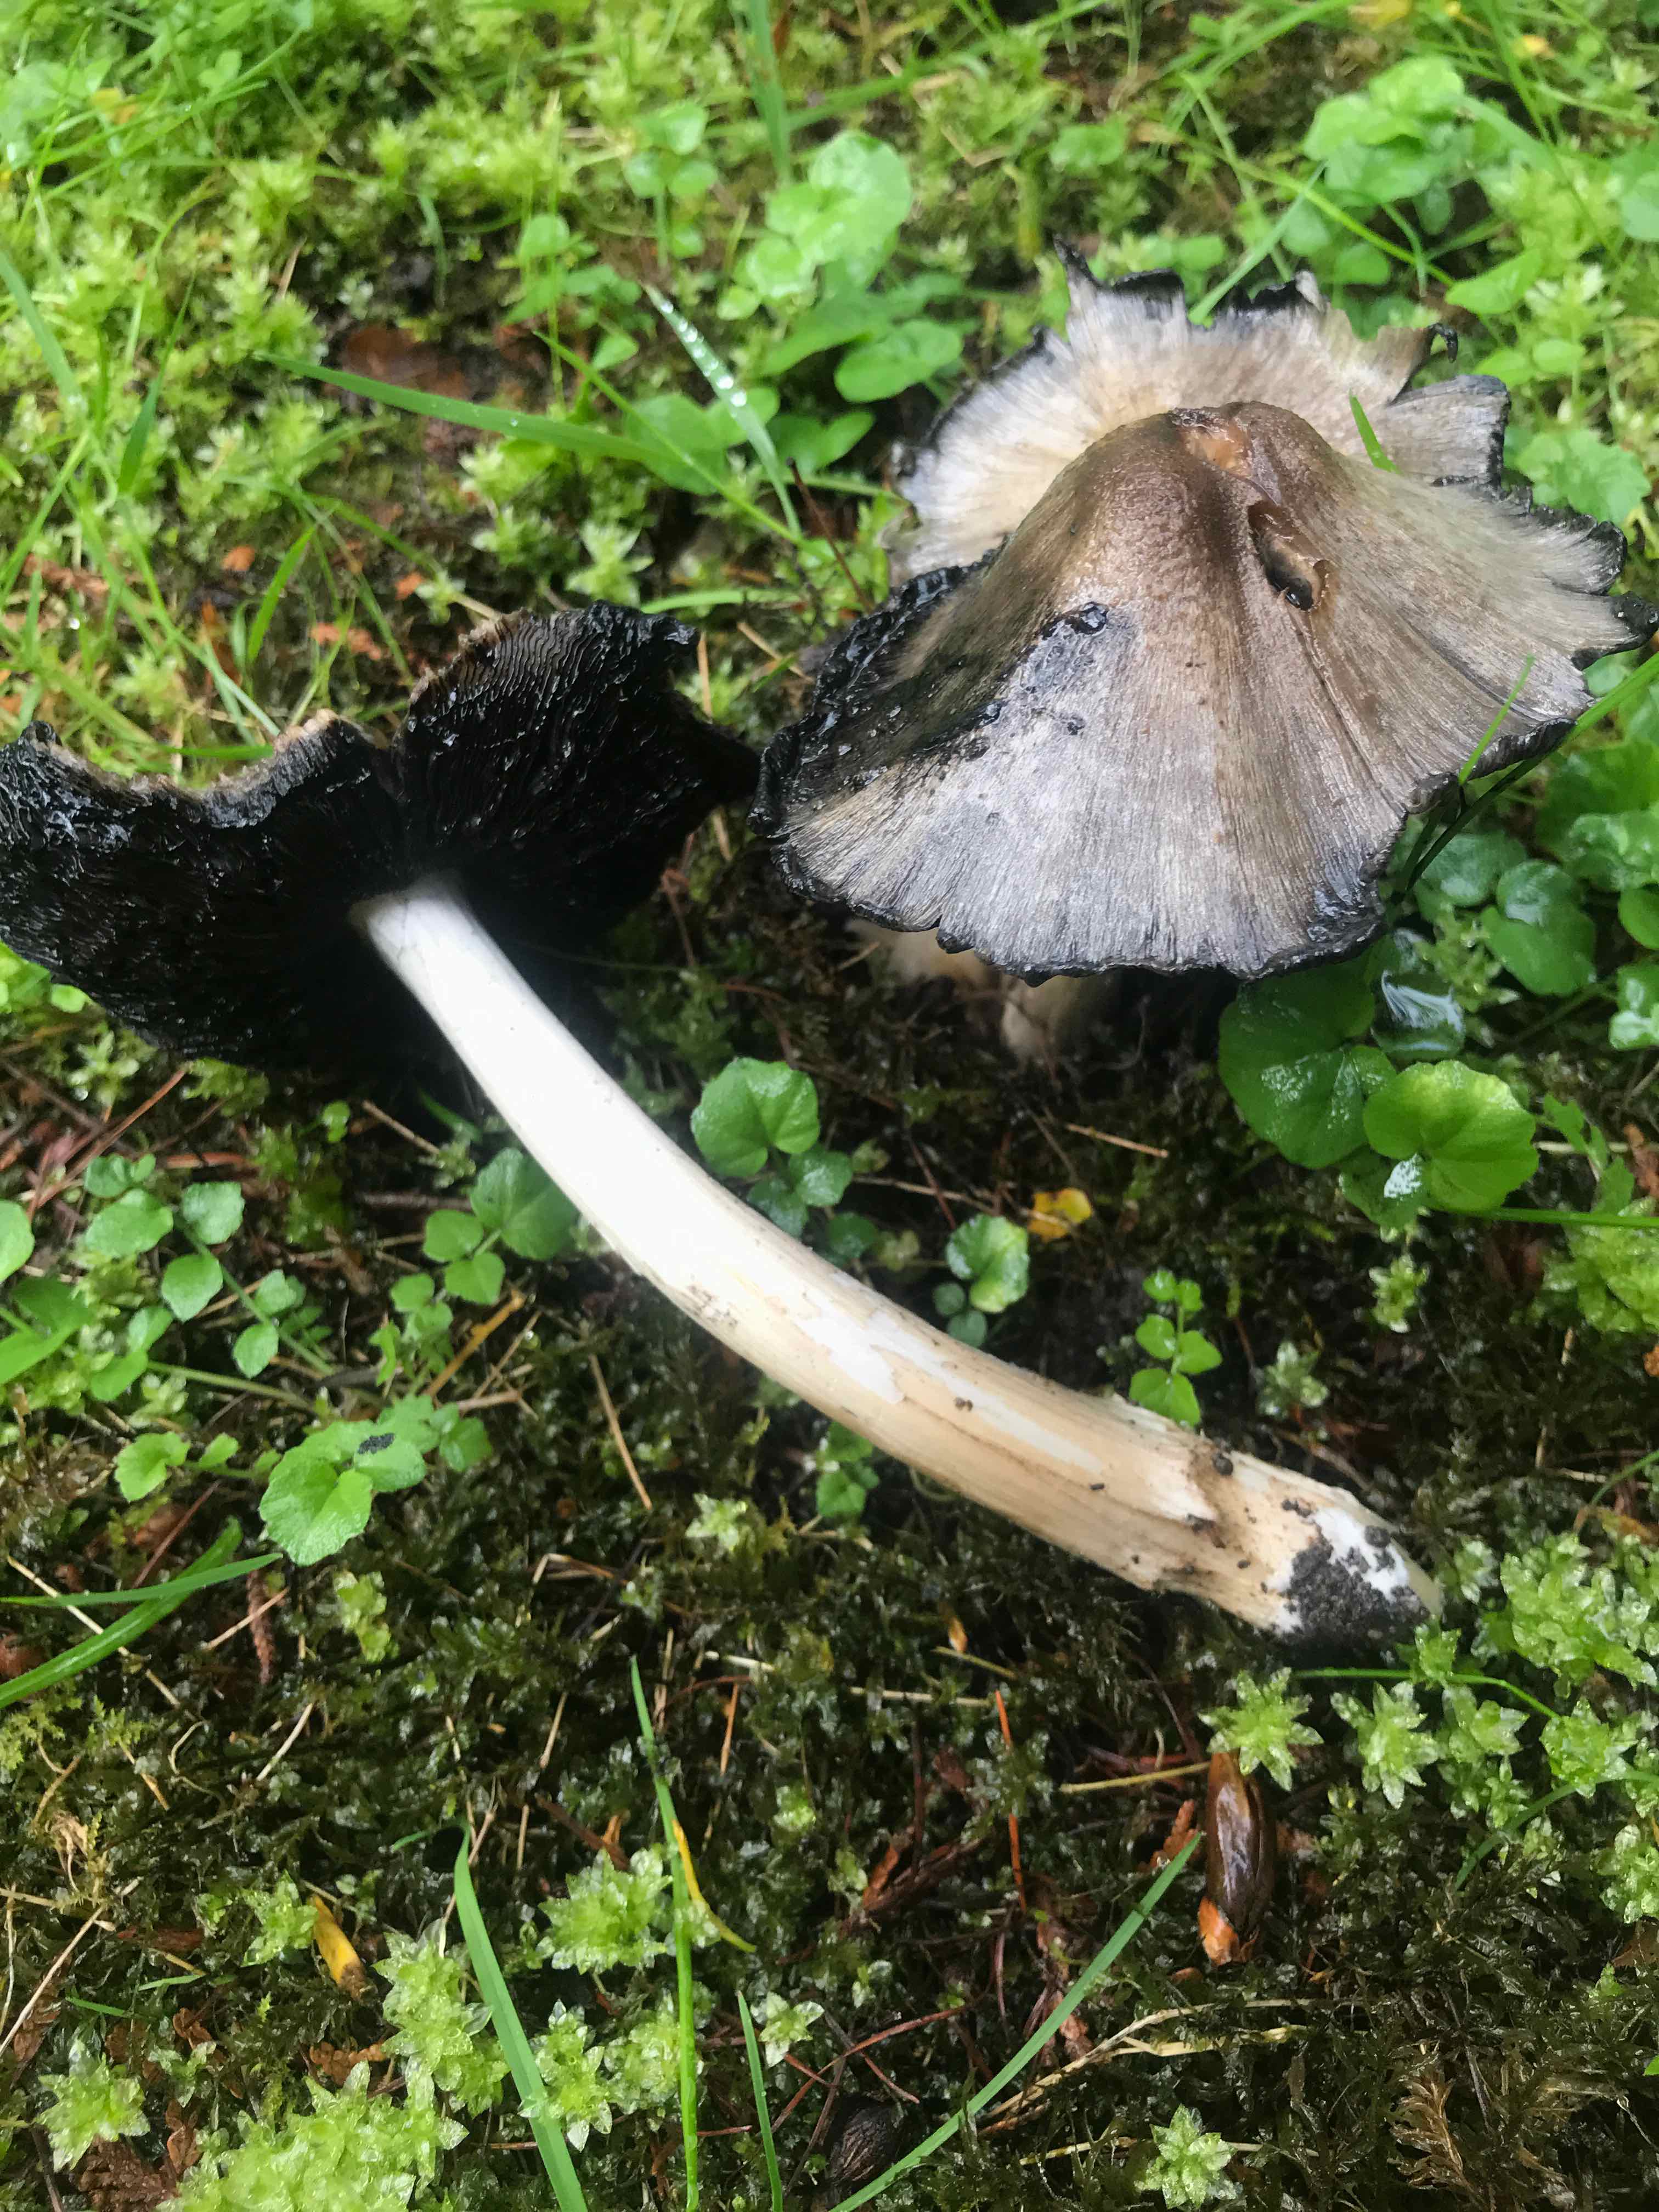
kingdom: Fungi
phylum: Basidiomycota
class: Agaricomycetes
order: Agaricales
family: Psathyrellaceae
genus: Coprinopsis
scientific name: Coprinopsis atramentaria
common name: almindelig blækhat
